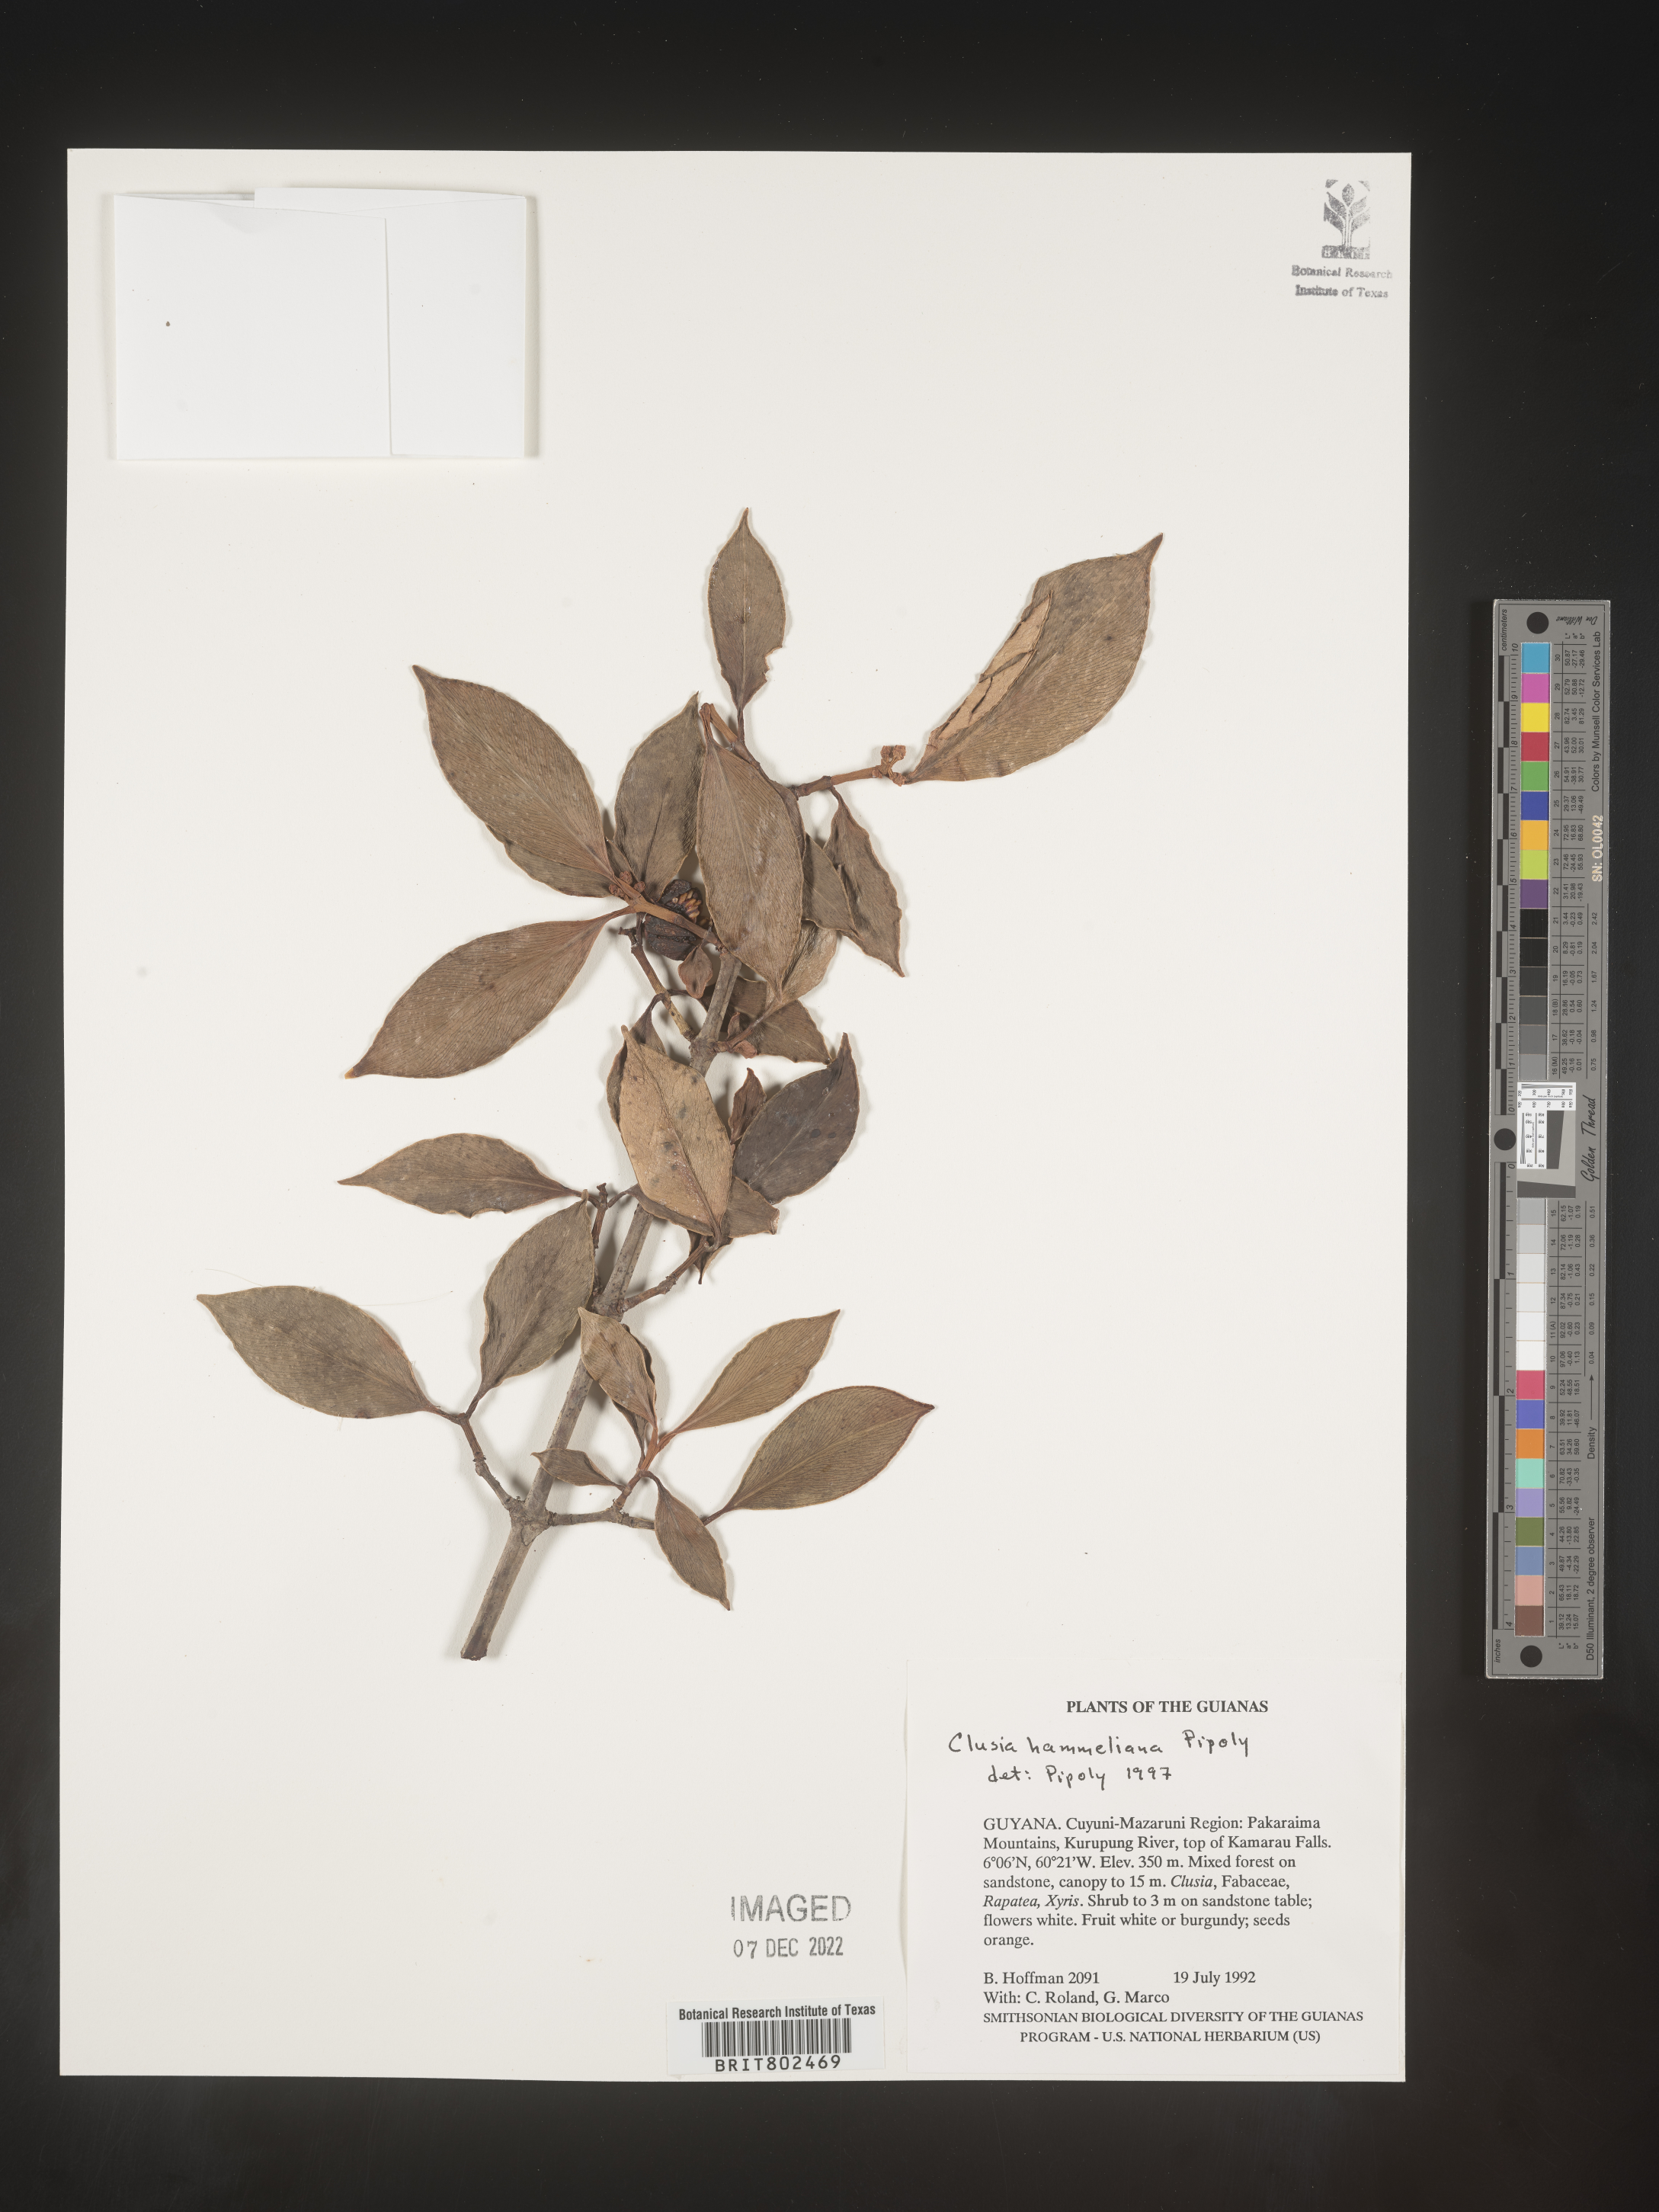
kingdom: Plantae
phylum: Tracheophyta
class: Magnoliopsida
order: Malpighiales
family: Clusiaceae
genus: Clusia
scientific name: Clusia hammeliana
